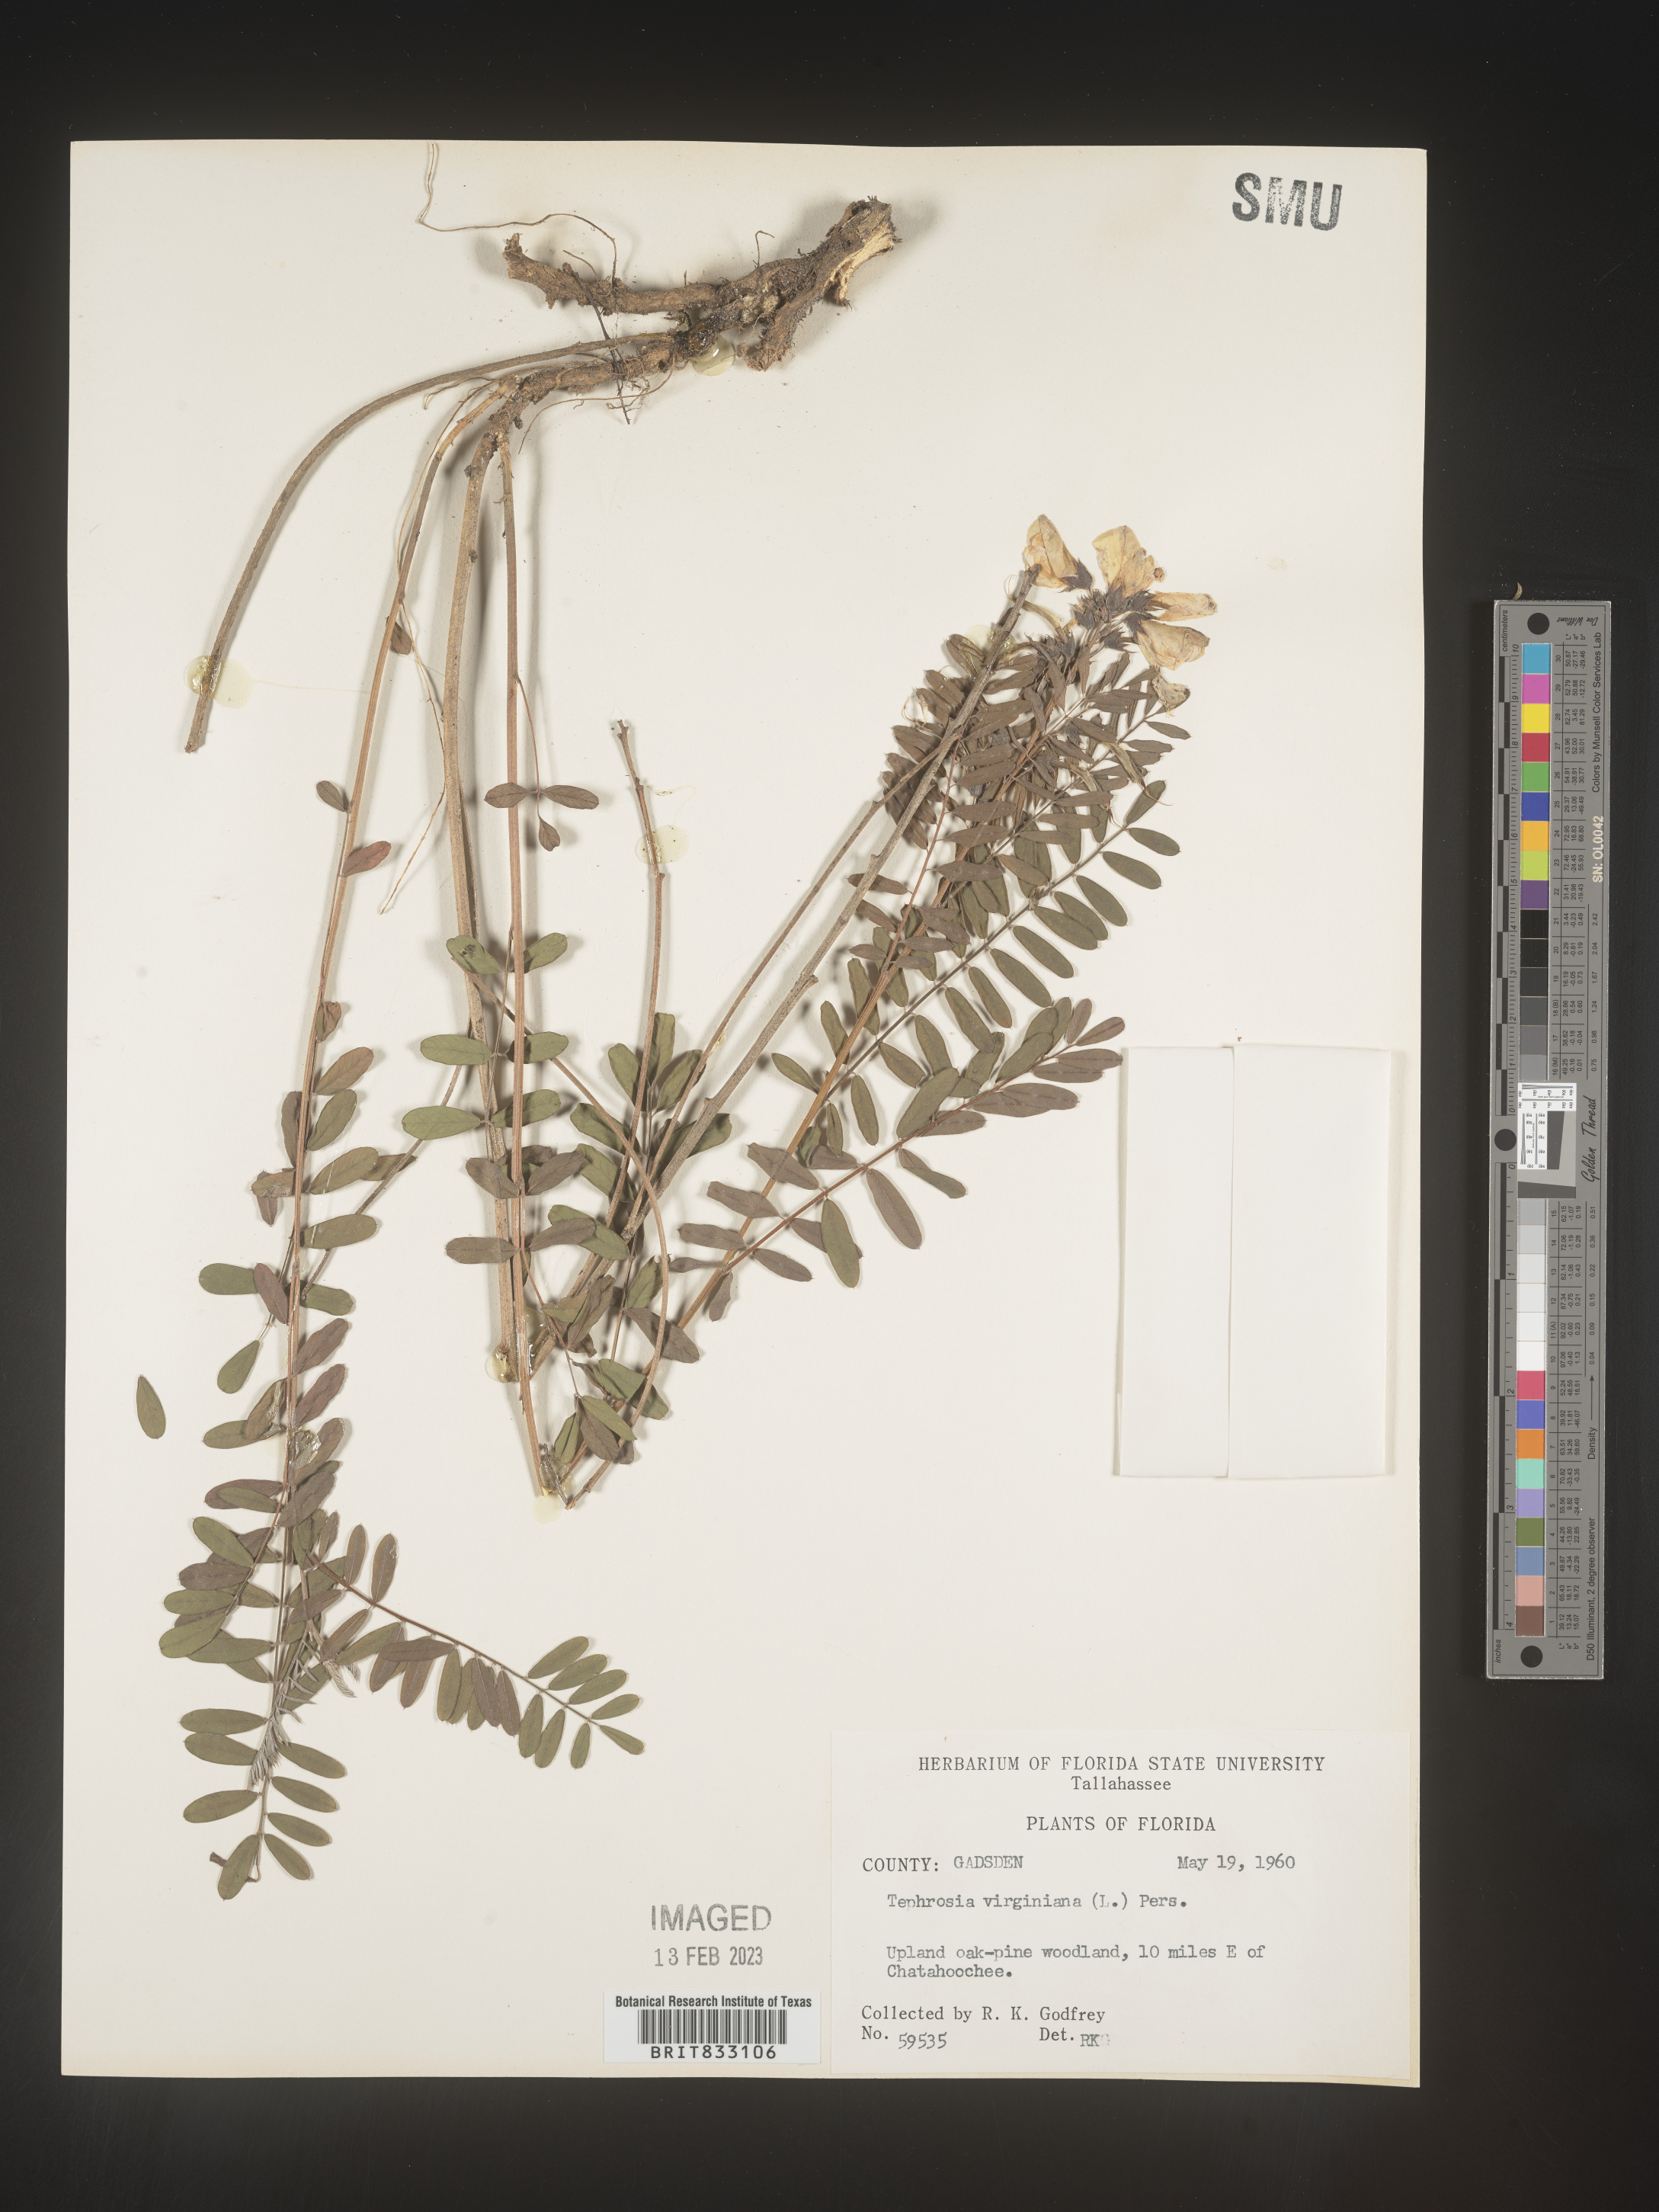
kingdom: Plantae
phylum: Tracheophyta
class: Magnoliopsida
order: Fabales
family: Fabaceae
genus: Tephrosia
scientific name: Tephrosia virginiana
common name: Rabbit-pea
